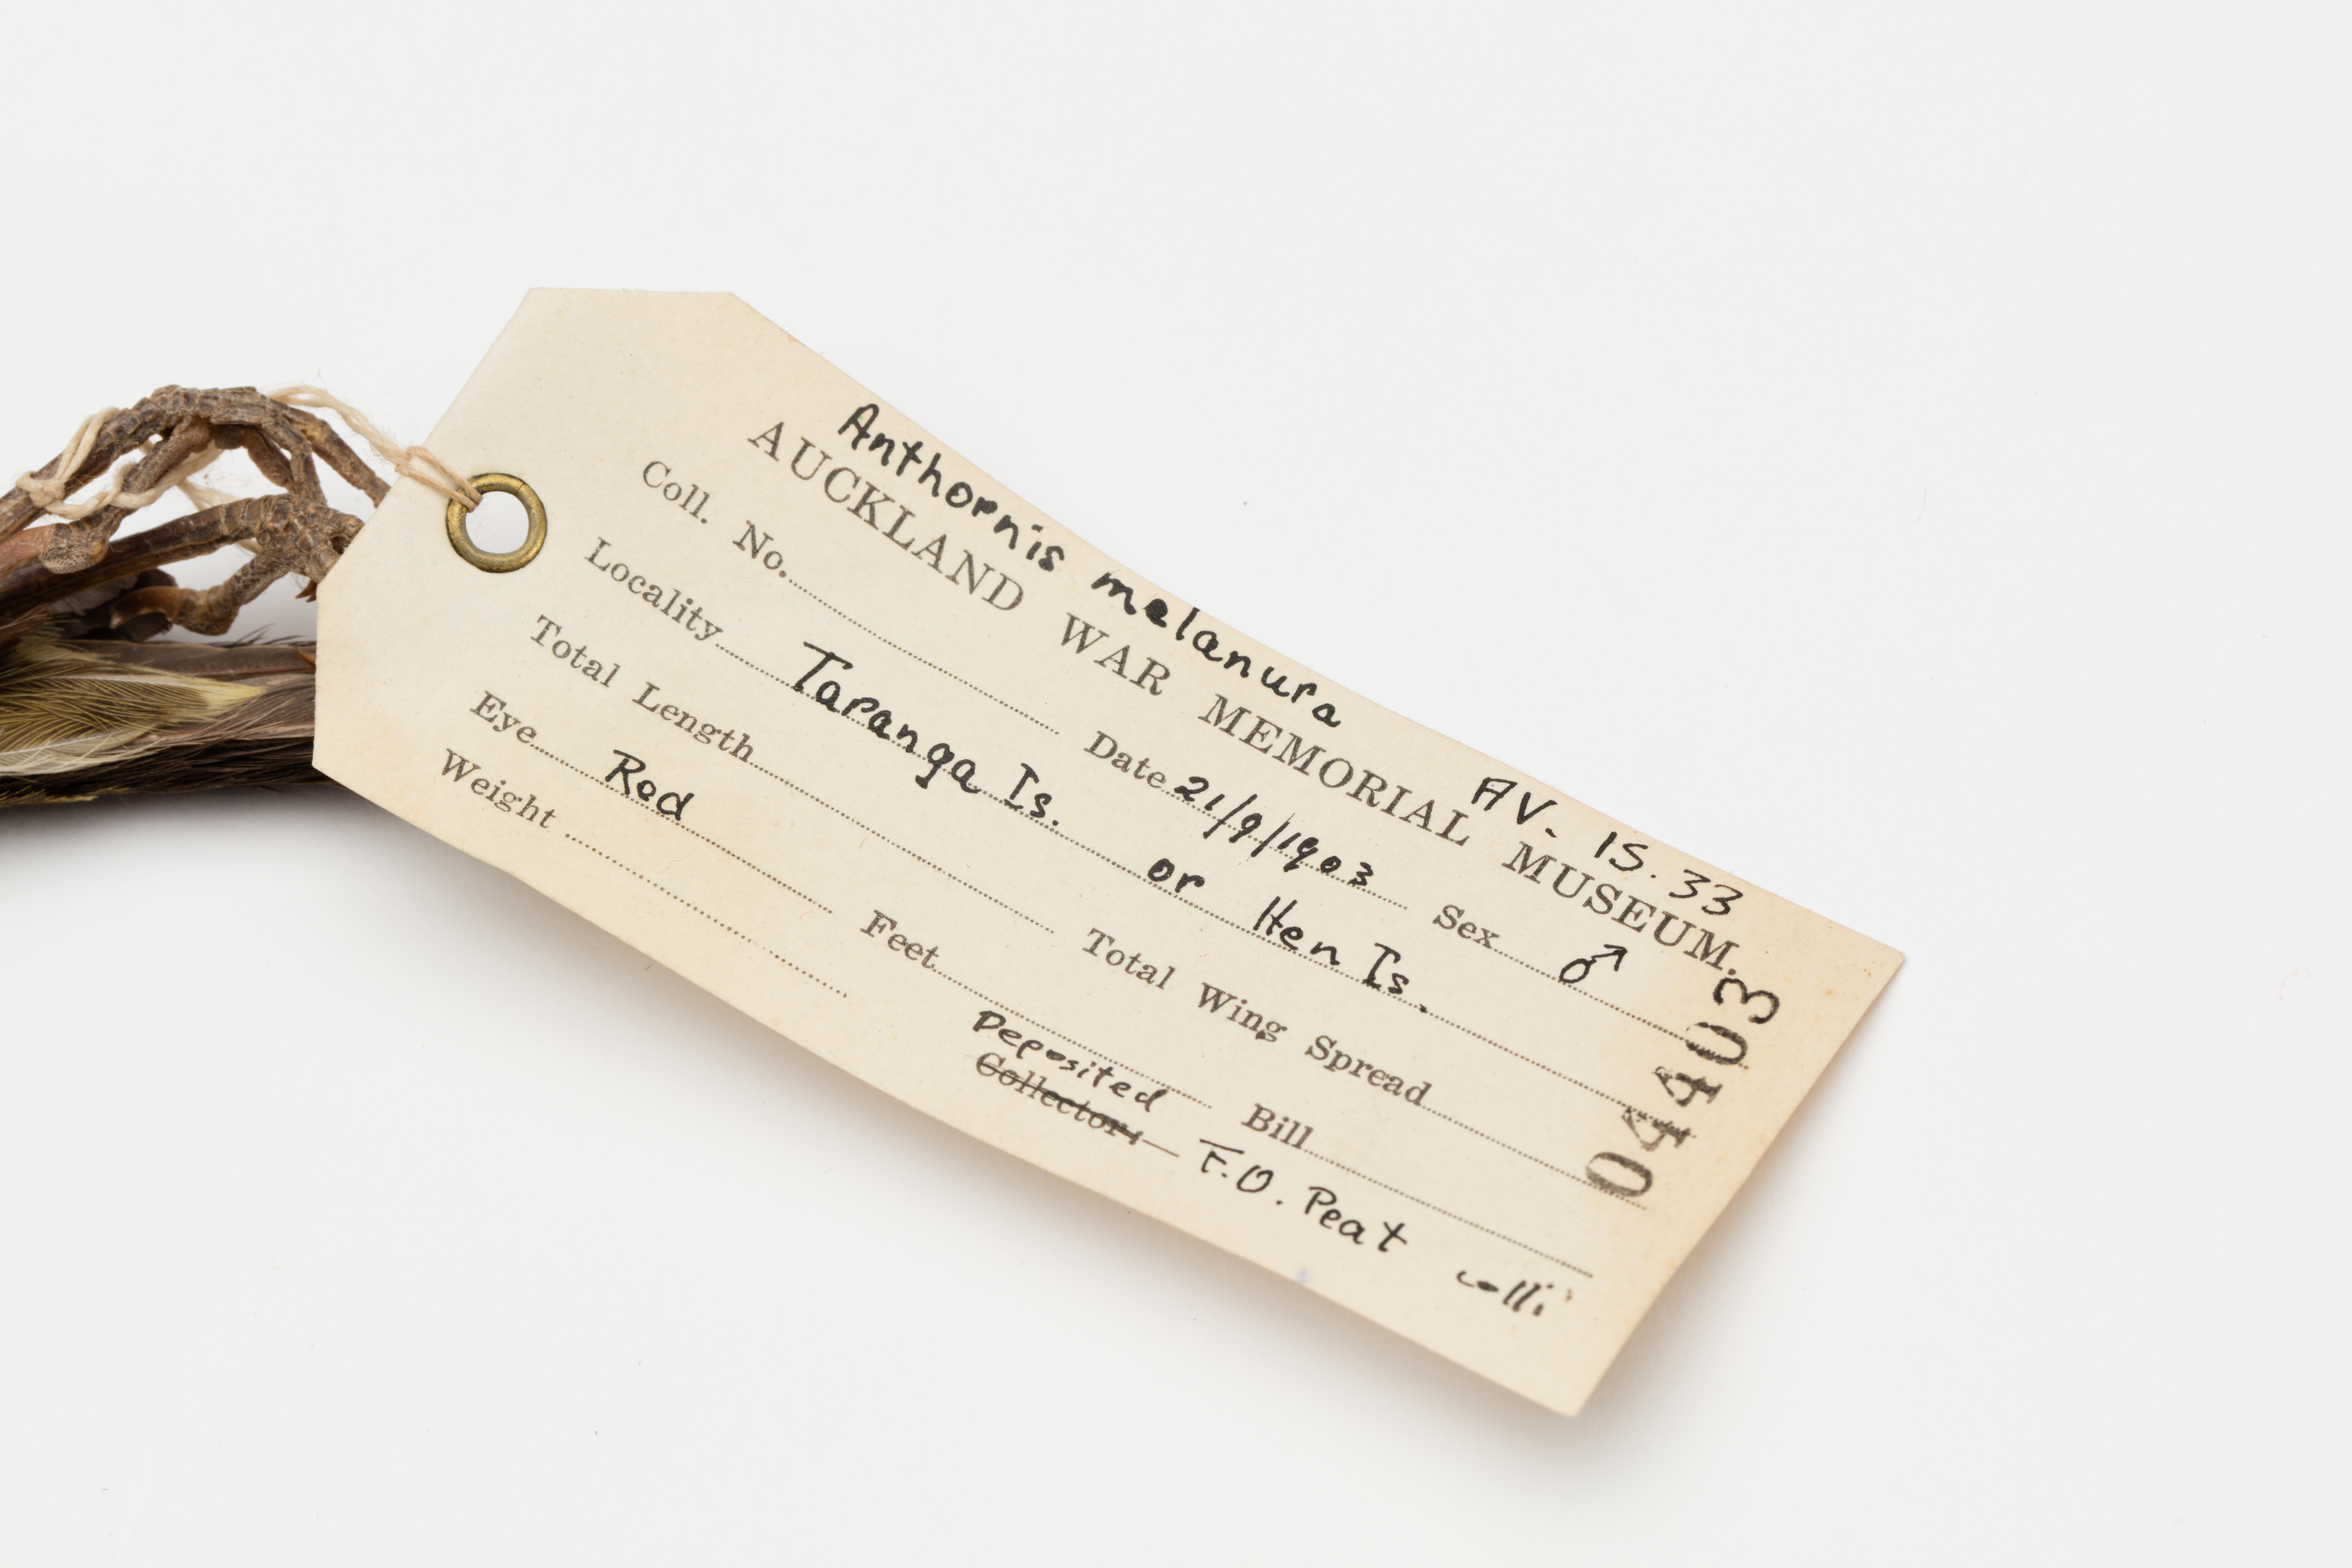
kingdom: Animalia
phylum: Chordata
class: Aves
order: Passeriformes
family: Meliphagidae
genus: Anthornis
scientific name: Anthornis melanura
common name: New zealand bellbird
